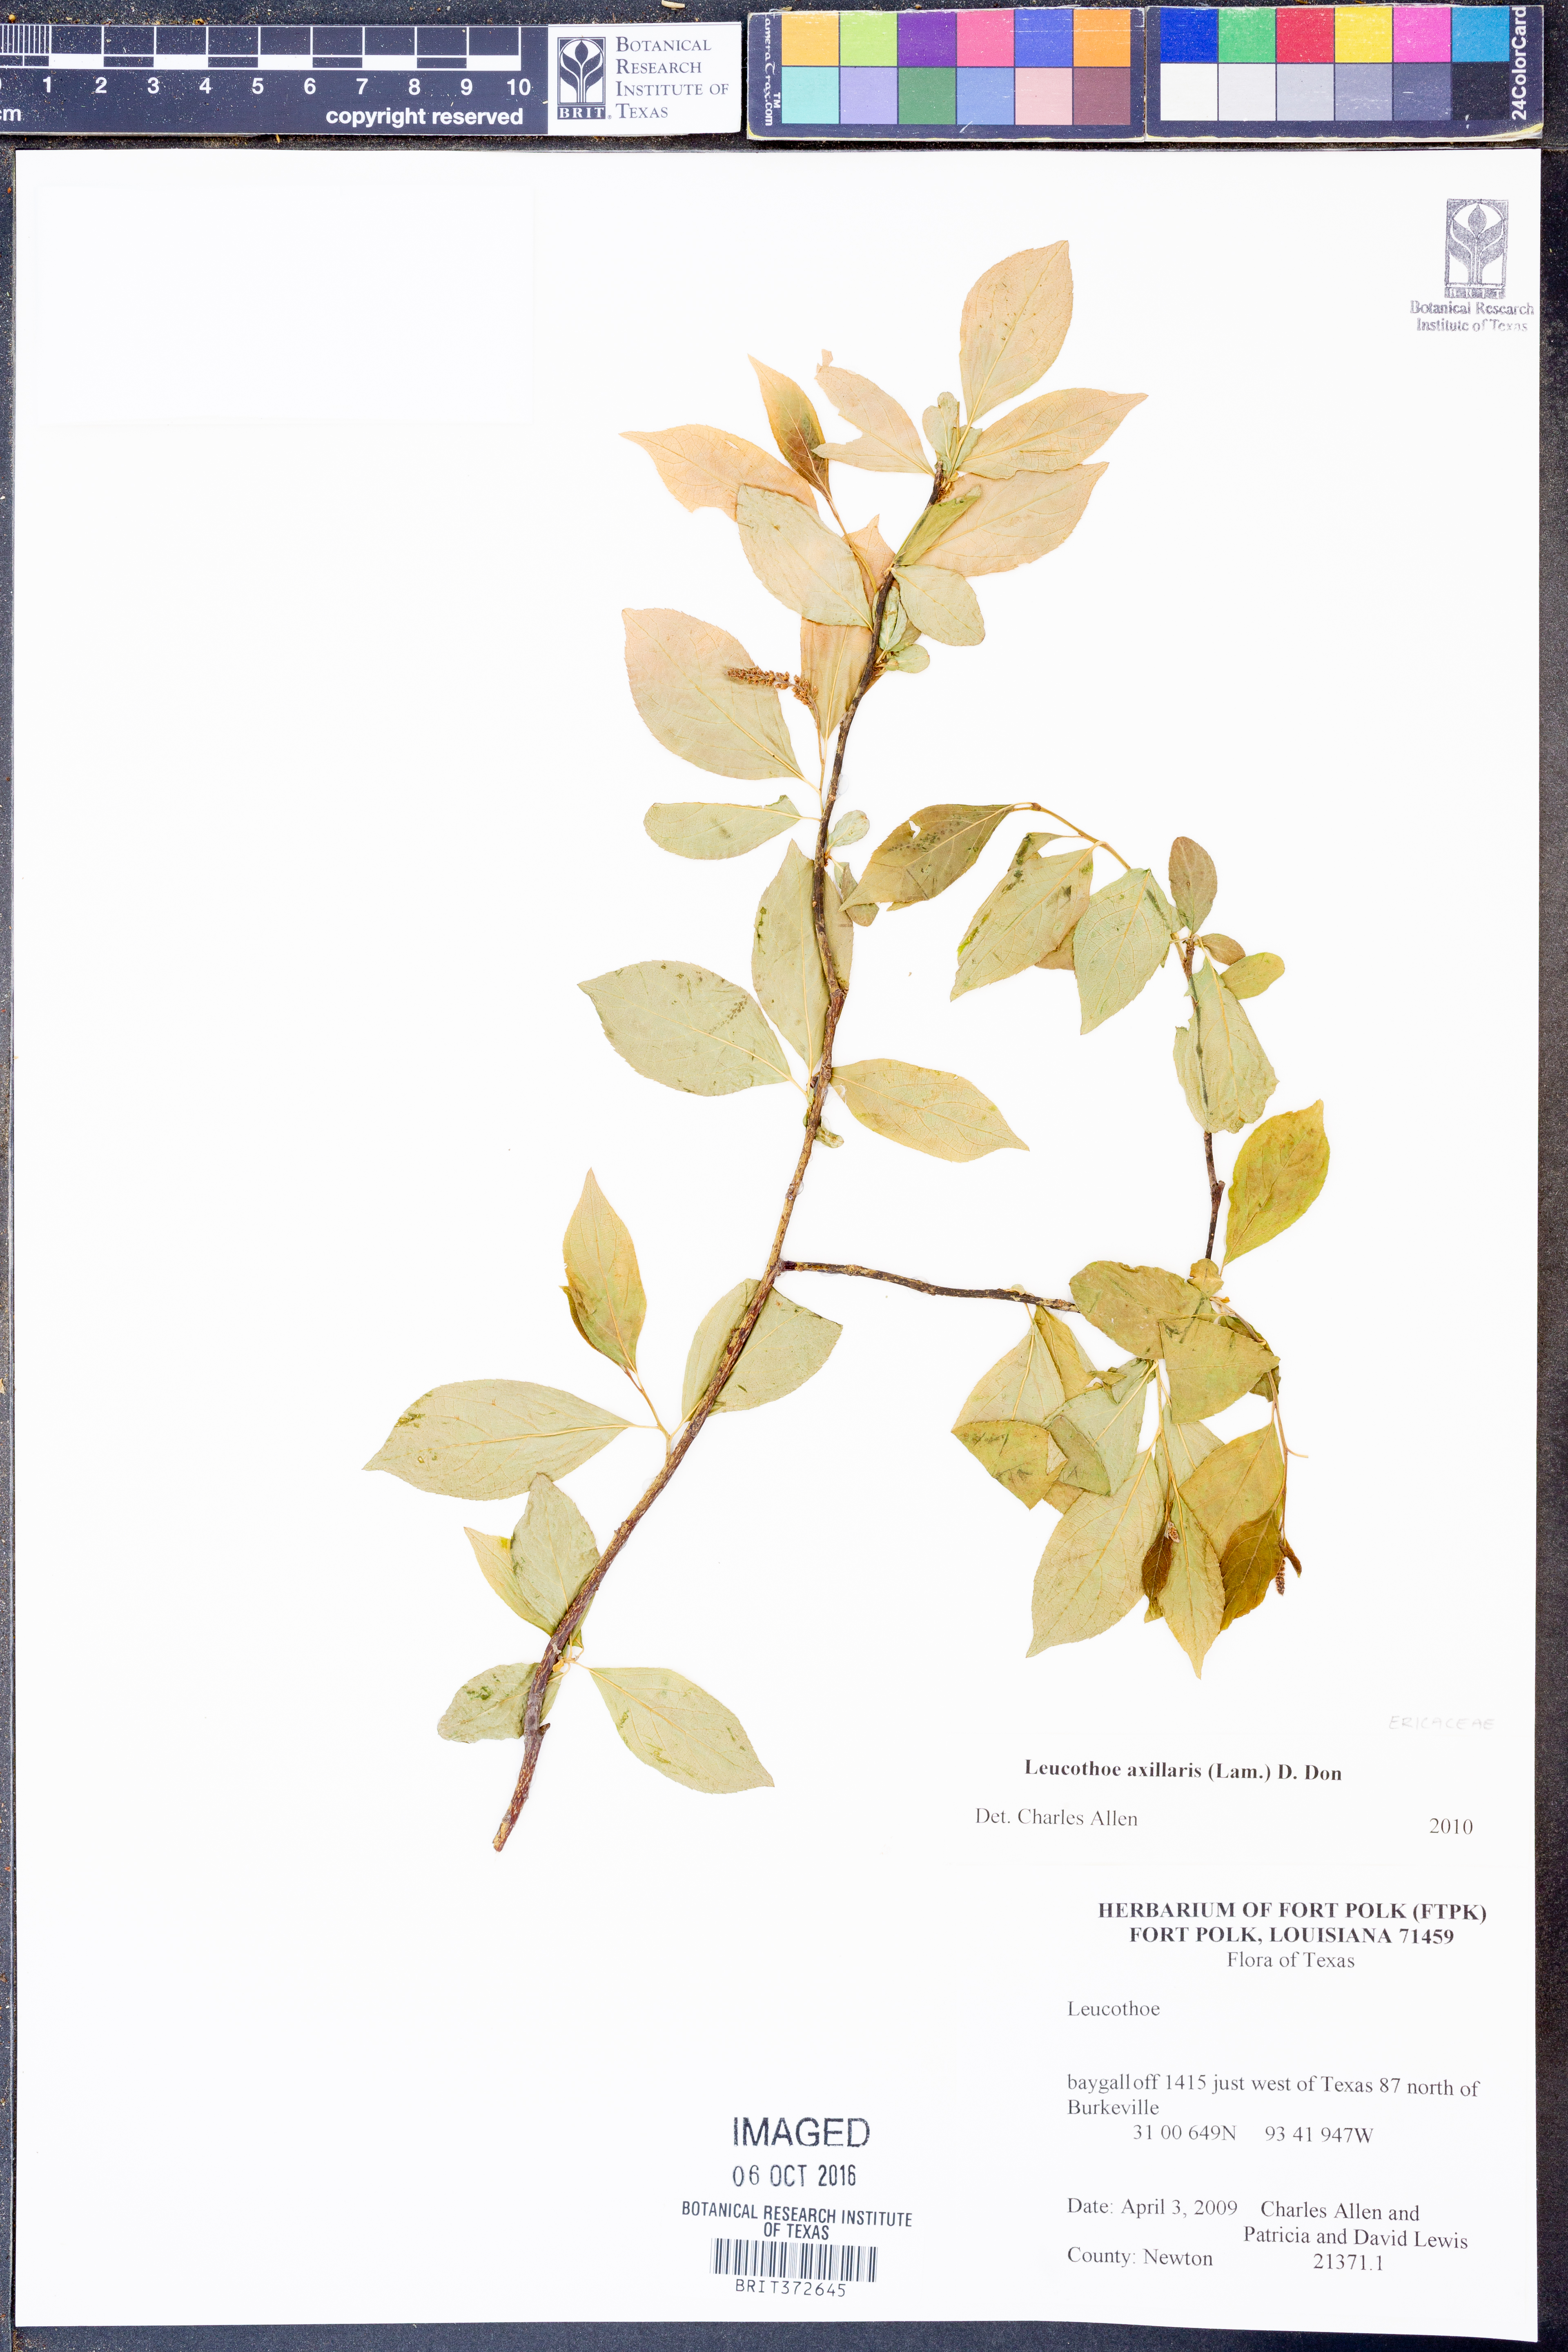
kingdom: Plantae
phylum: Tracheophyta
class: Magnoliopsida
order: Saxifragales
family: Iteaceae
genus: Itea
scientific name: Itea virginica
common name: Sweetspire
